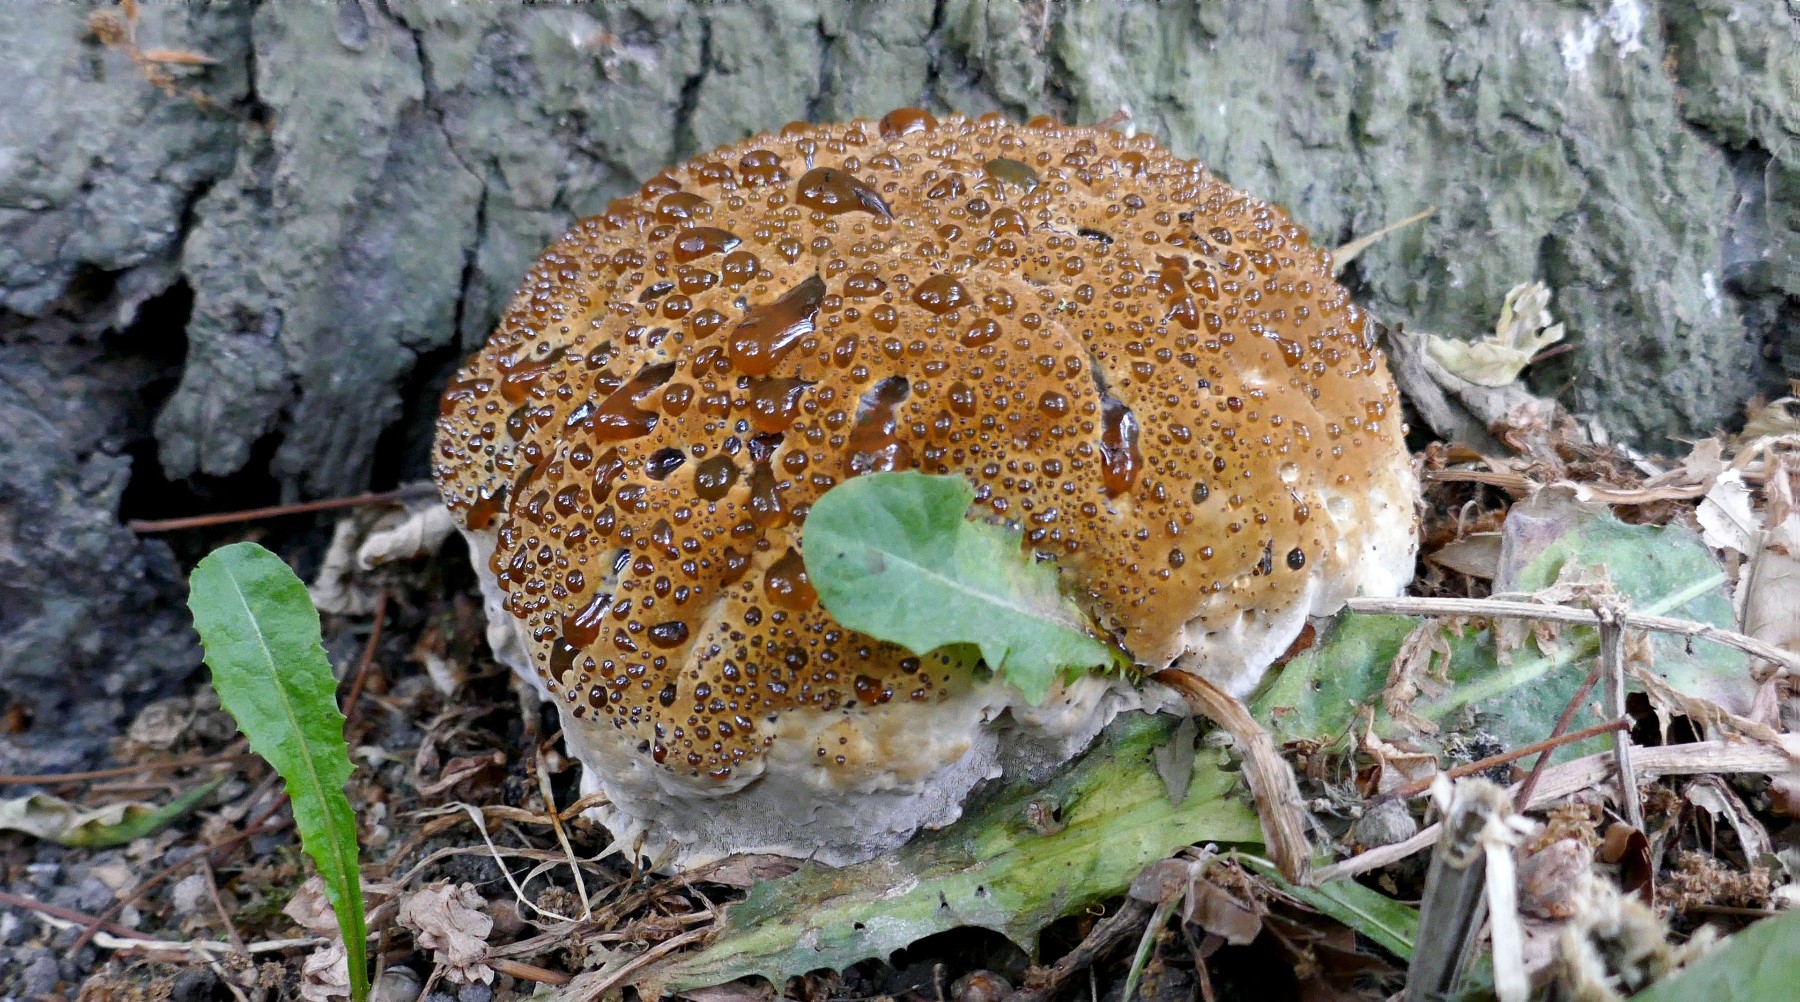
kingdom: Fungi
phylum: Basidiomycota
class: Agaricomycetes
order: Hymenochaetales
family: Hymenochaetaceae
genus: Pseudoinonotus
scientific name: Pseudoinonotus dryadeus
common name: ege-spejlporesvamp
